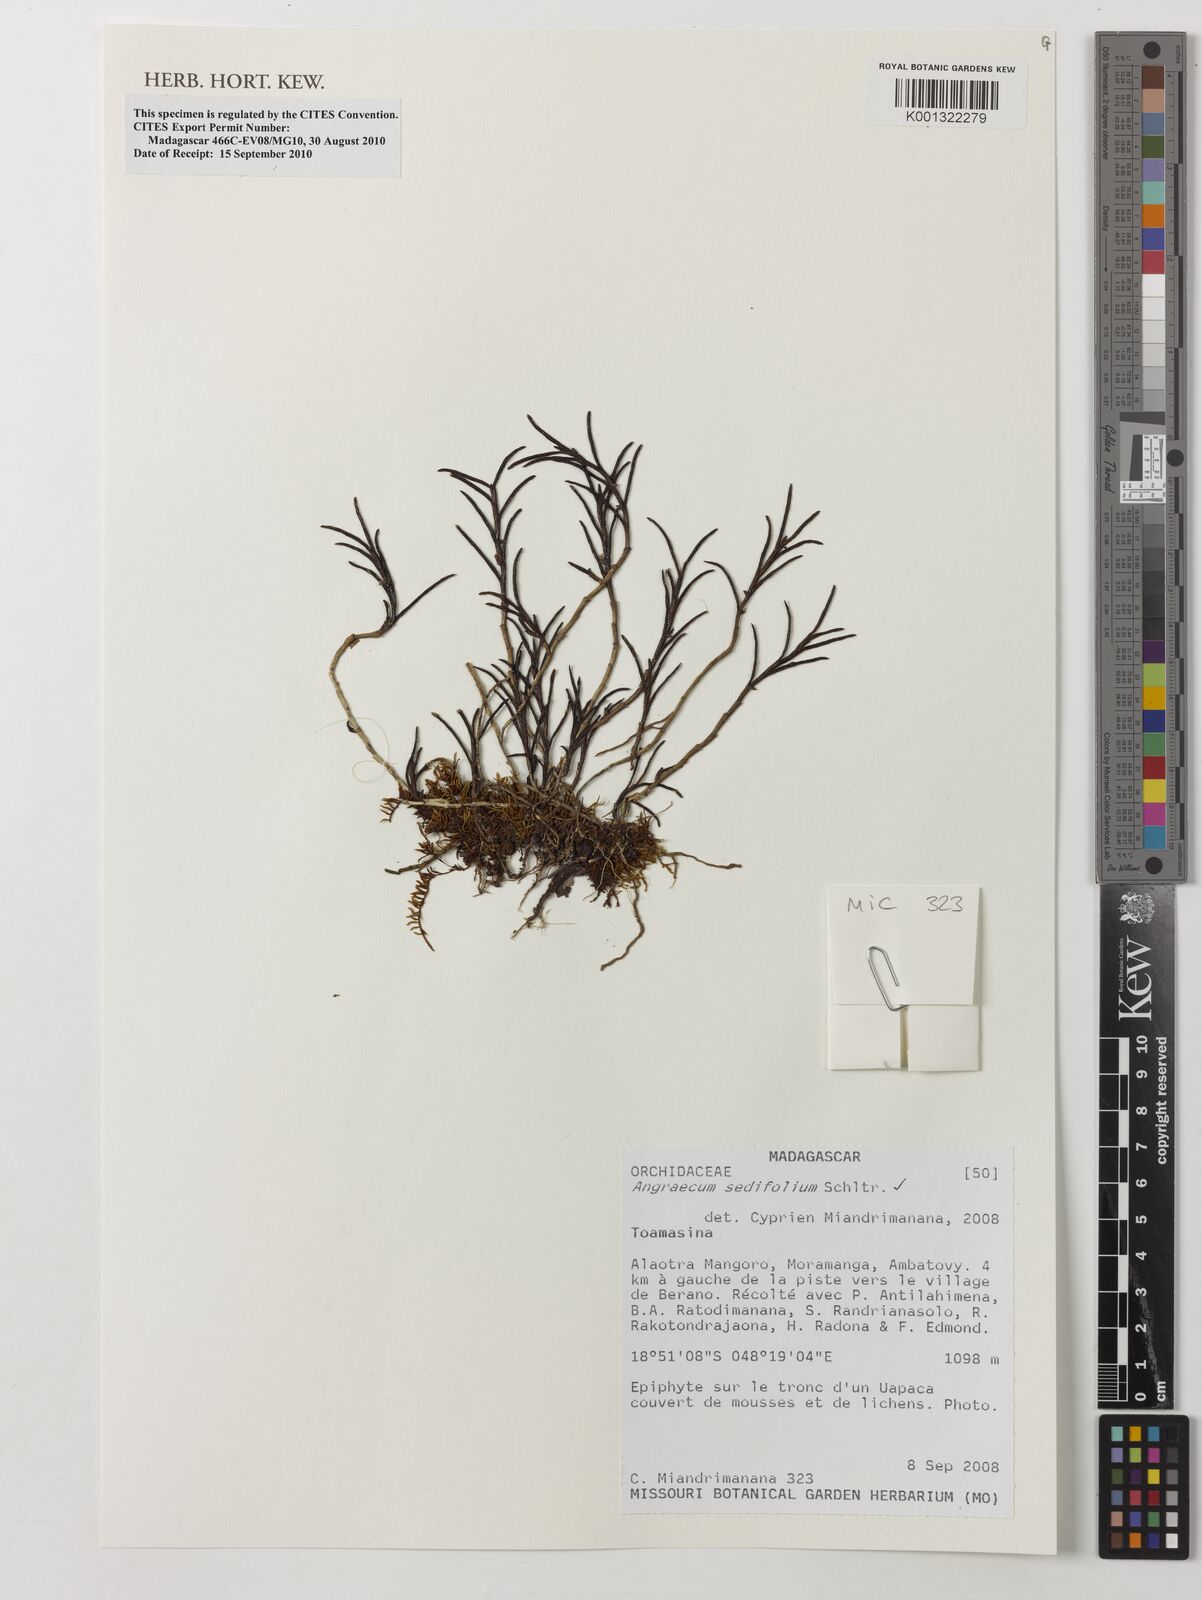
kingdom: Plantae
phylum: Tracheophyta
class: Liliopsida
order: Asparagales
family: Orchidaceae
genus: Angraecum
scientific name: Angraecum sedifolium
